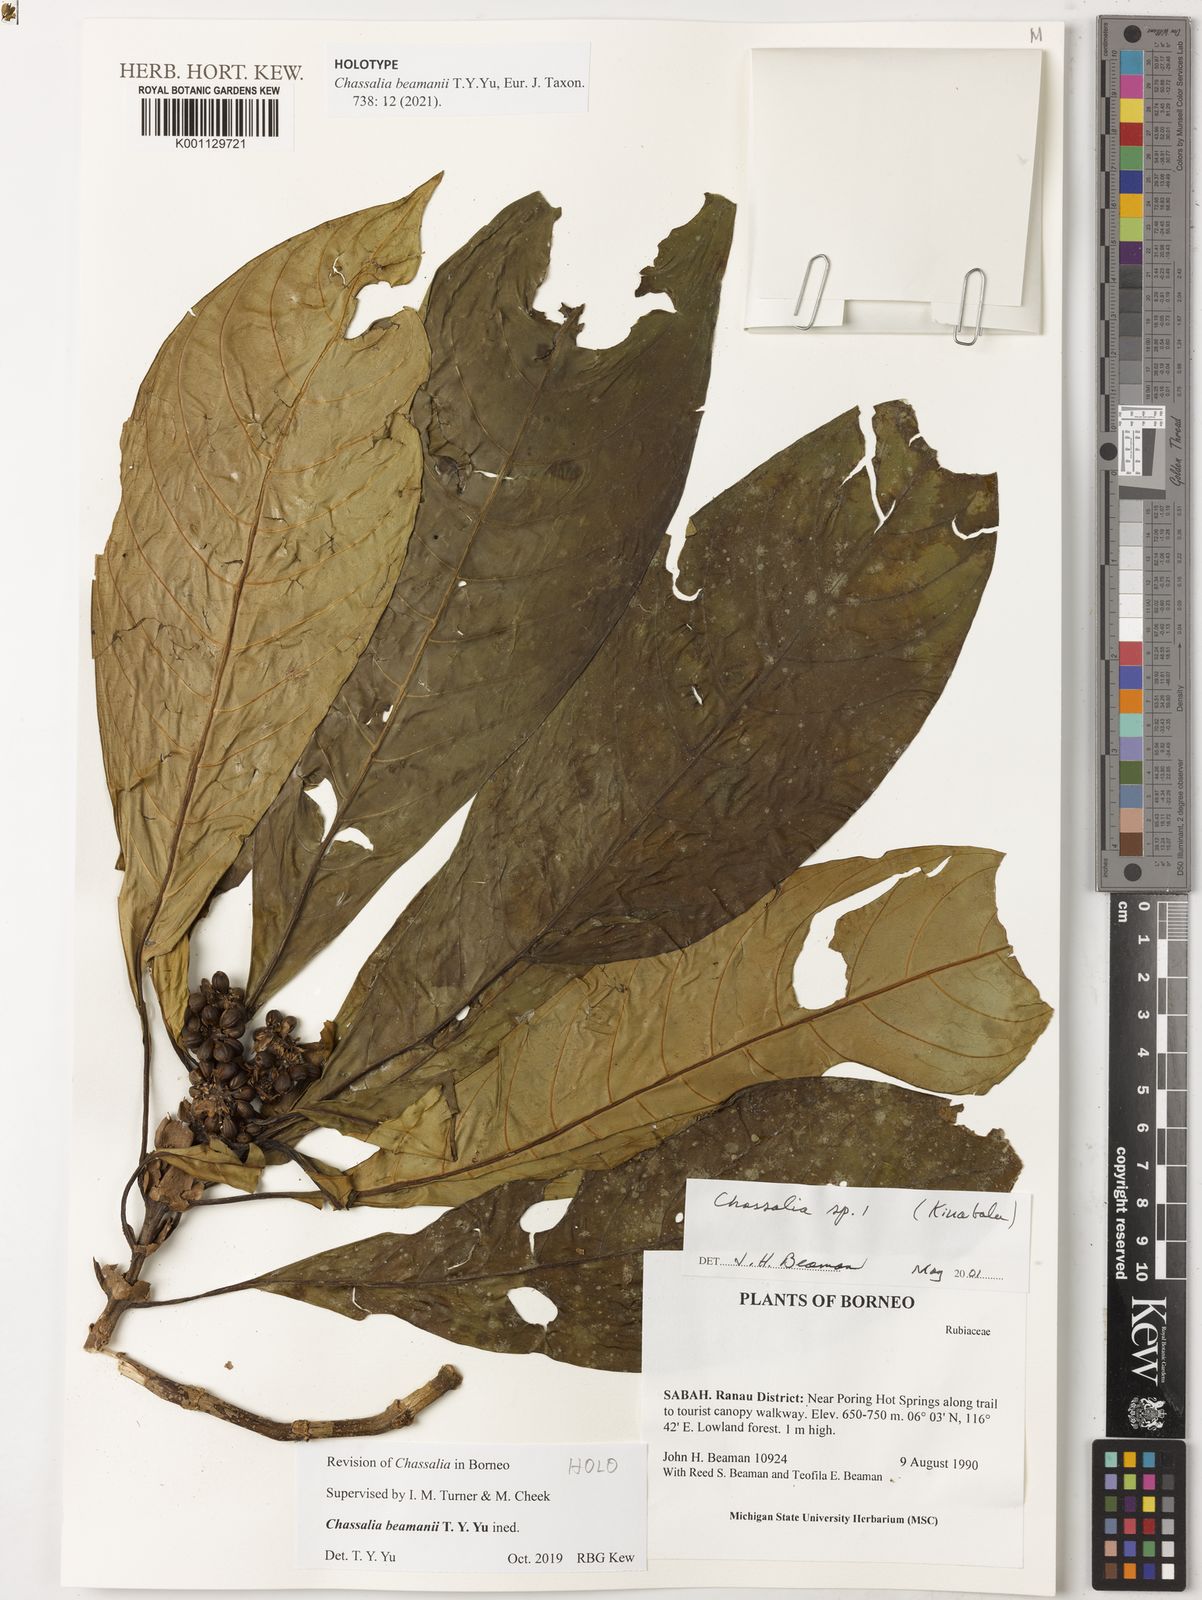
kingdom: Plantae
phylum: Tracheophyta
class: Magnoliopsida
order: Gentianales
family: Rubiaceae
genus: Chassalia
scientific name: Chassalia
